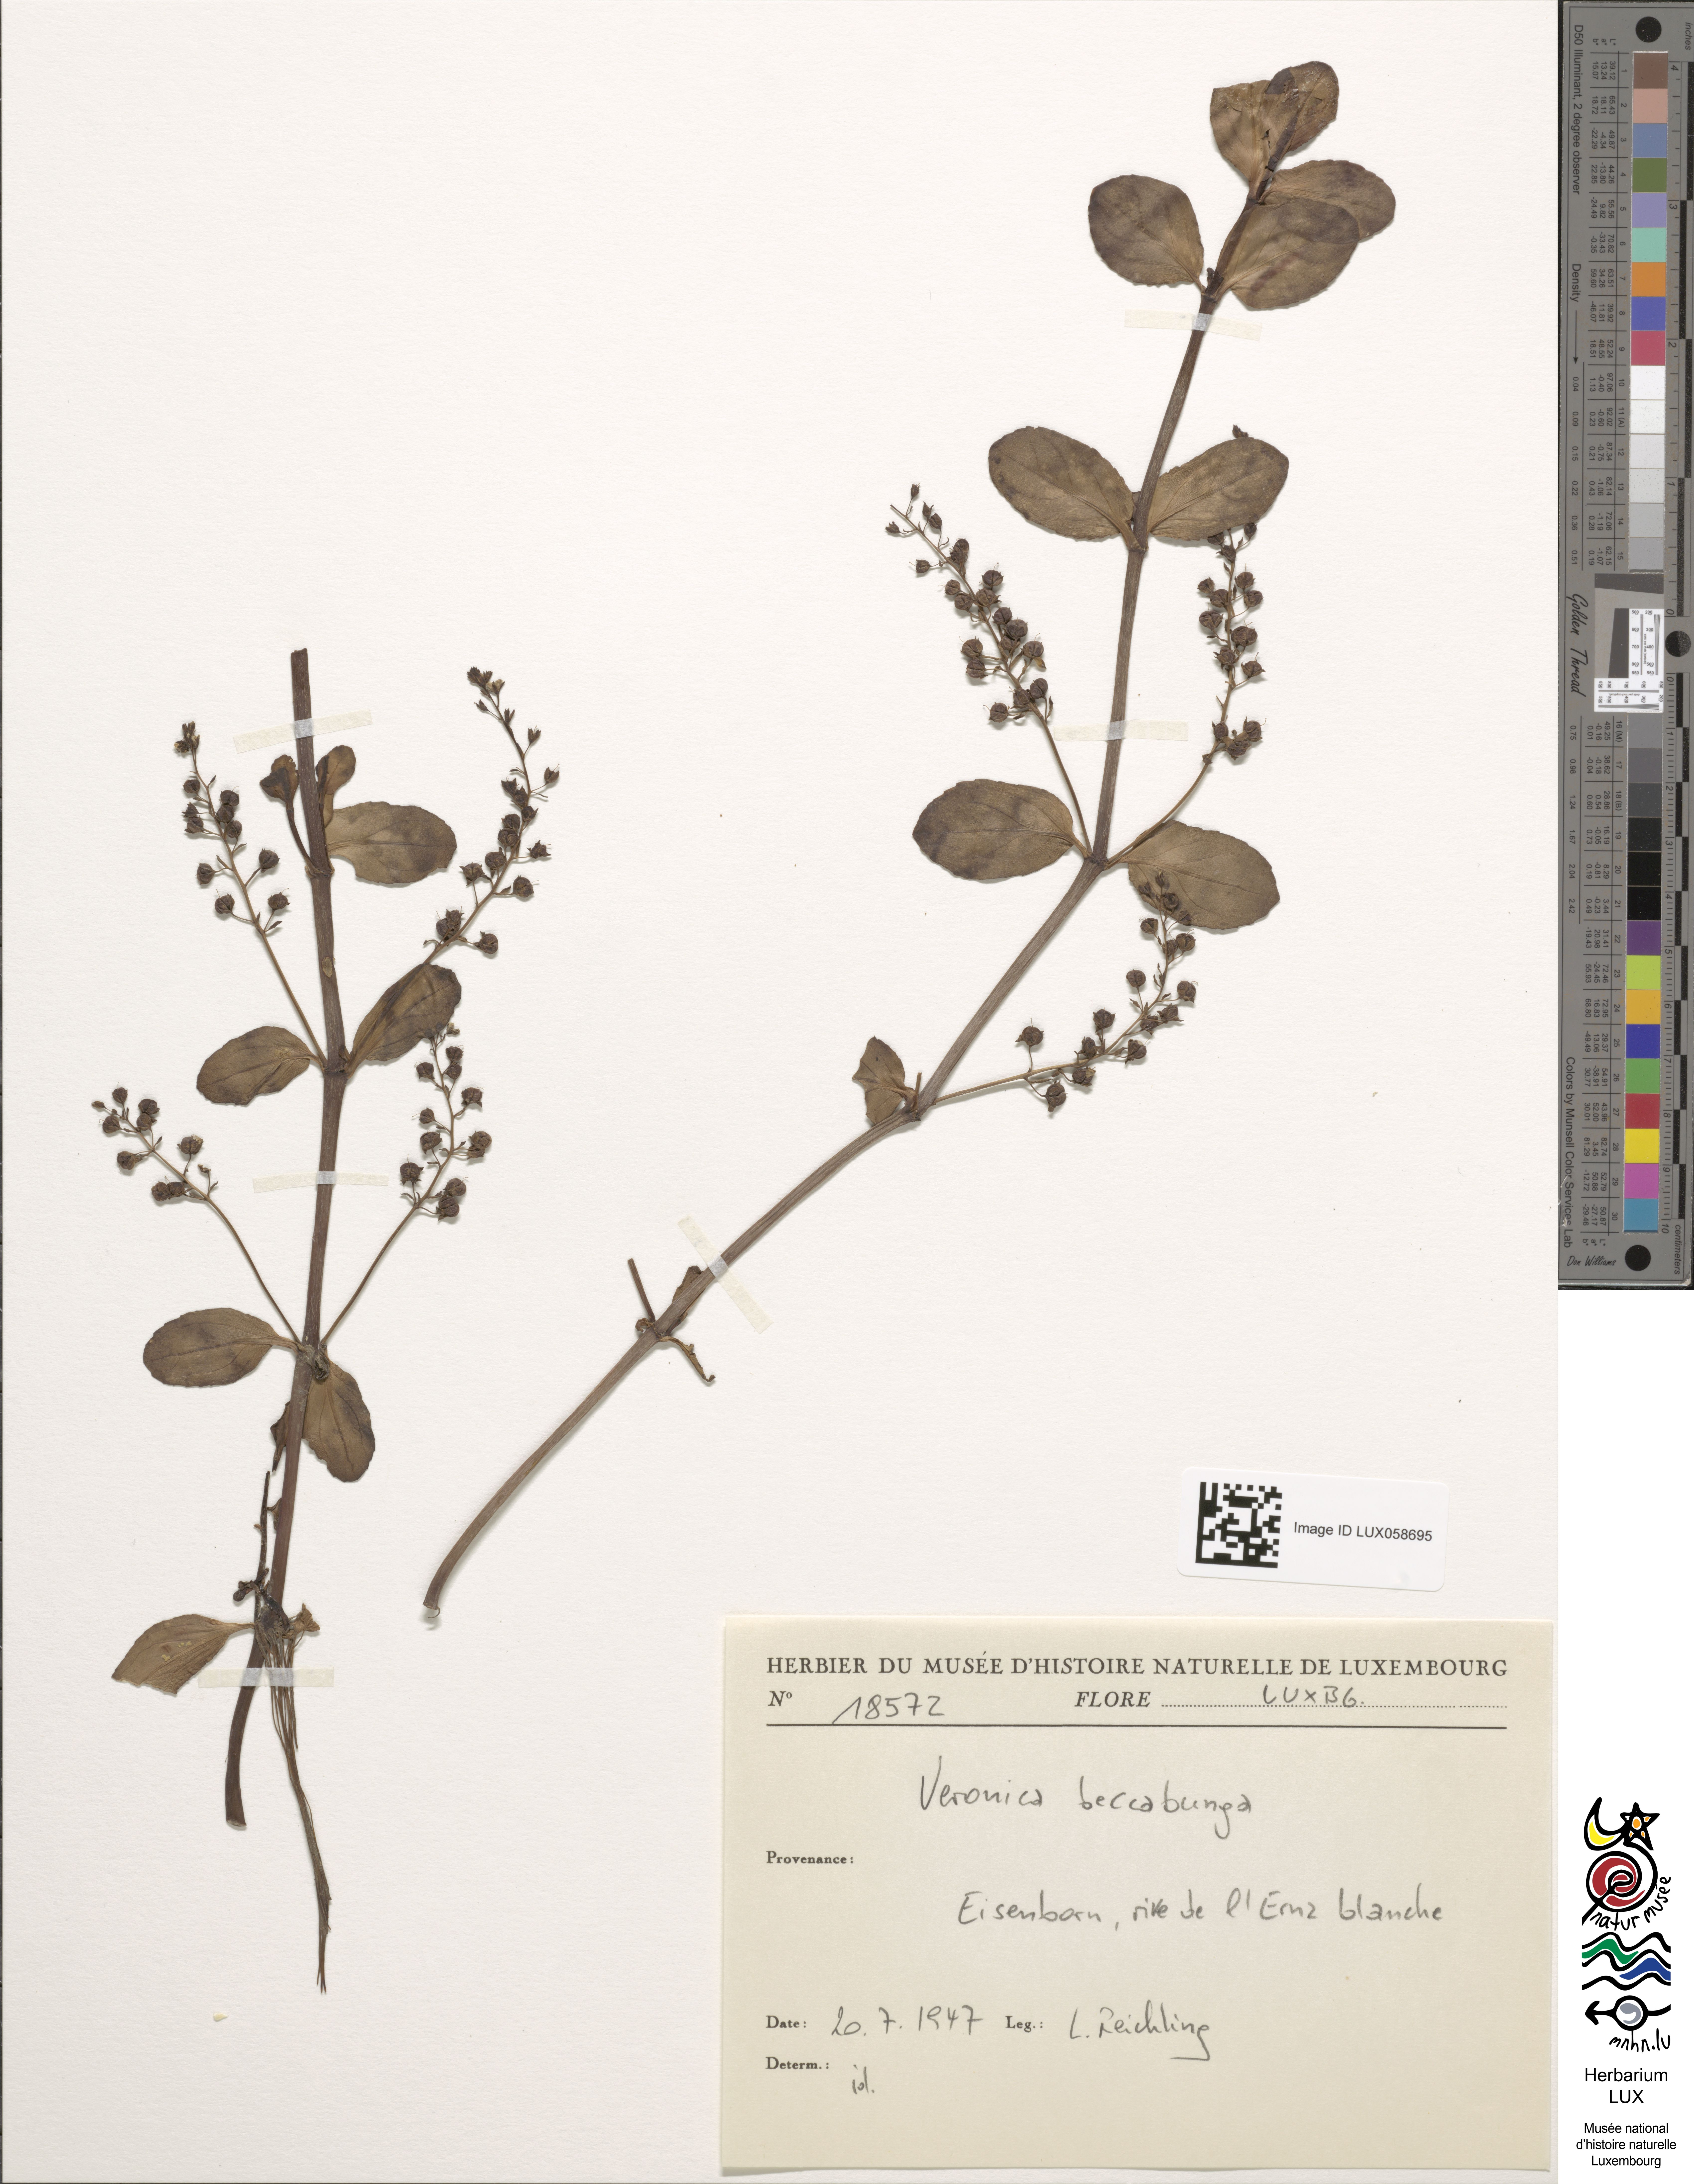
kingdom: Plantae
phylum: Tracheophyta
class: Magnoliopsida
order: Lamiales
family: Plantaginaceae
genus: Veronica
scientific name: Veronica beccabunga
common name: Brooklime
